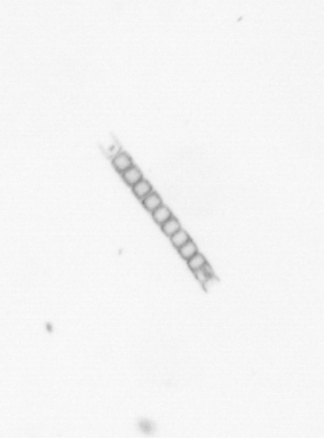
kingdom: Chromista
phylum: Ochrophyta
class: Bacillariophyceae
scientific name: Bacillariophyceae
